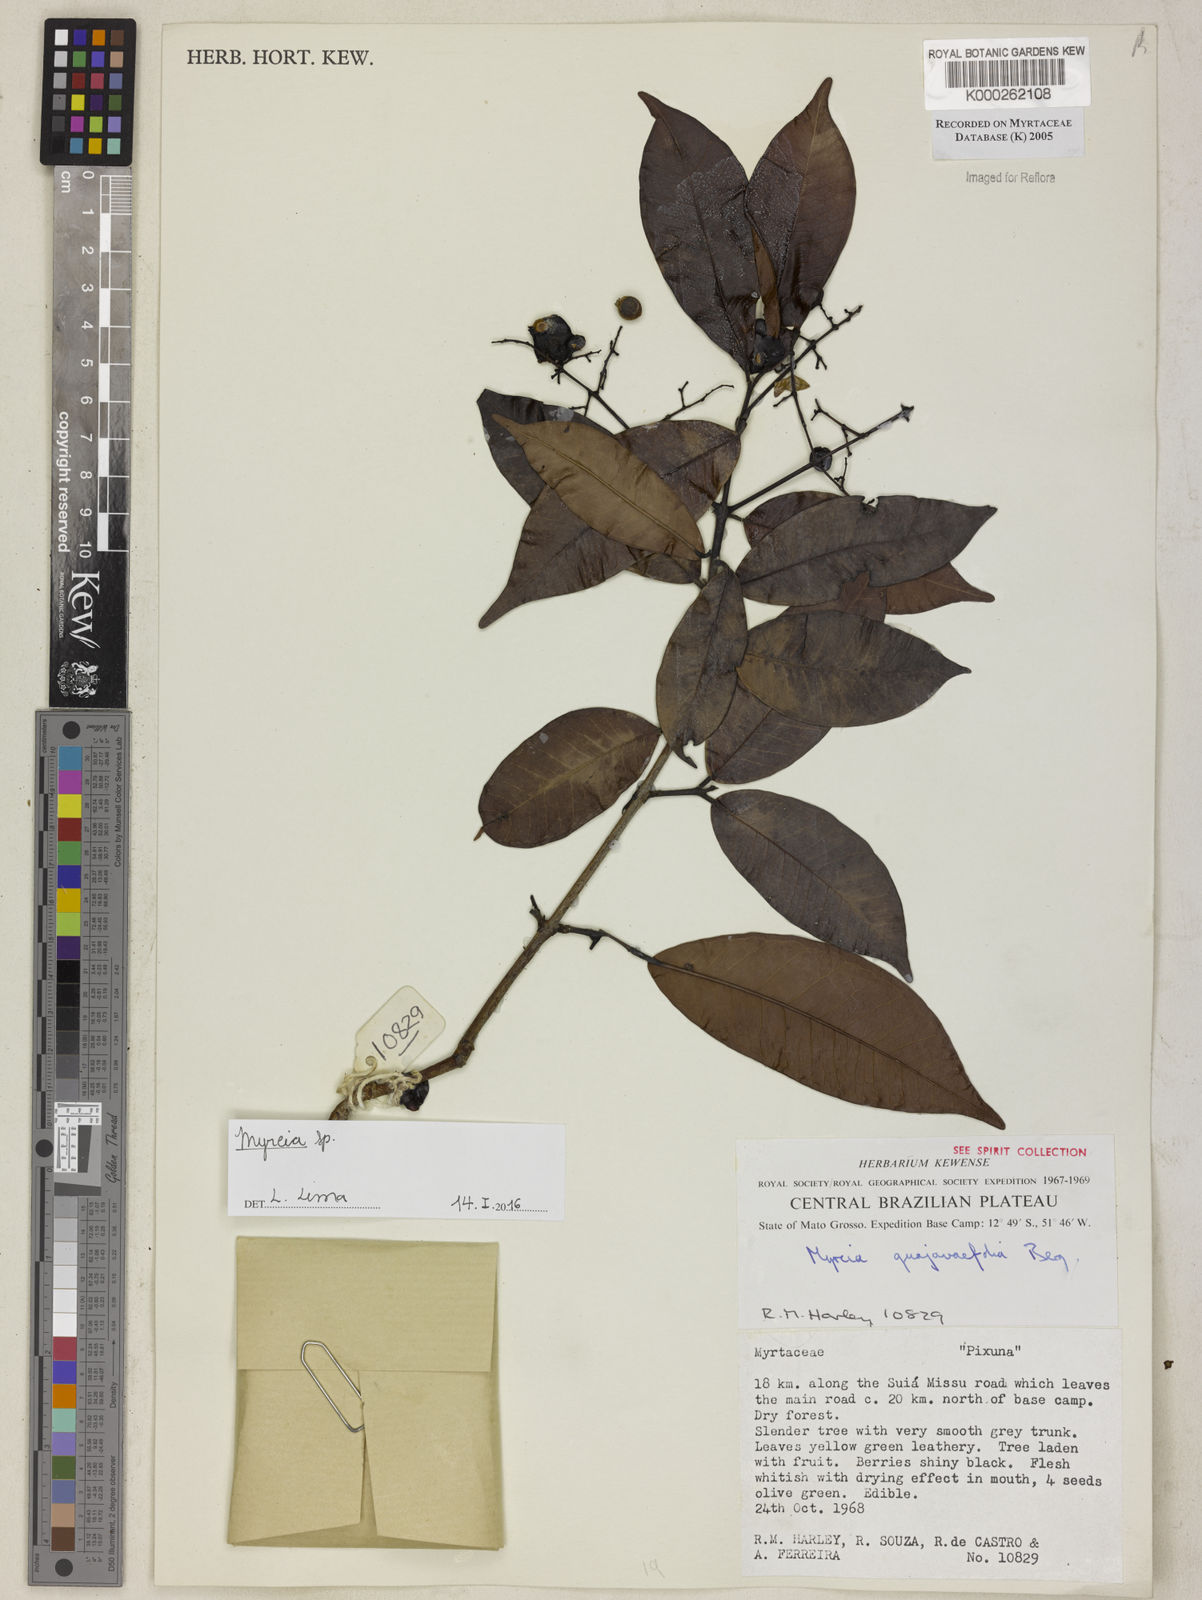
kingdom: Plantae
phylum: Tracheophyta
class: Magnoliopsida
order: Myrtales
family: Myrtaceae
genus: Myrcia
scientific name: Myrcia splendens
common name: Surinam cherry
